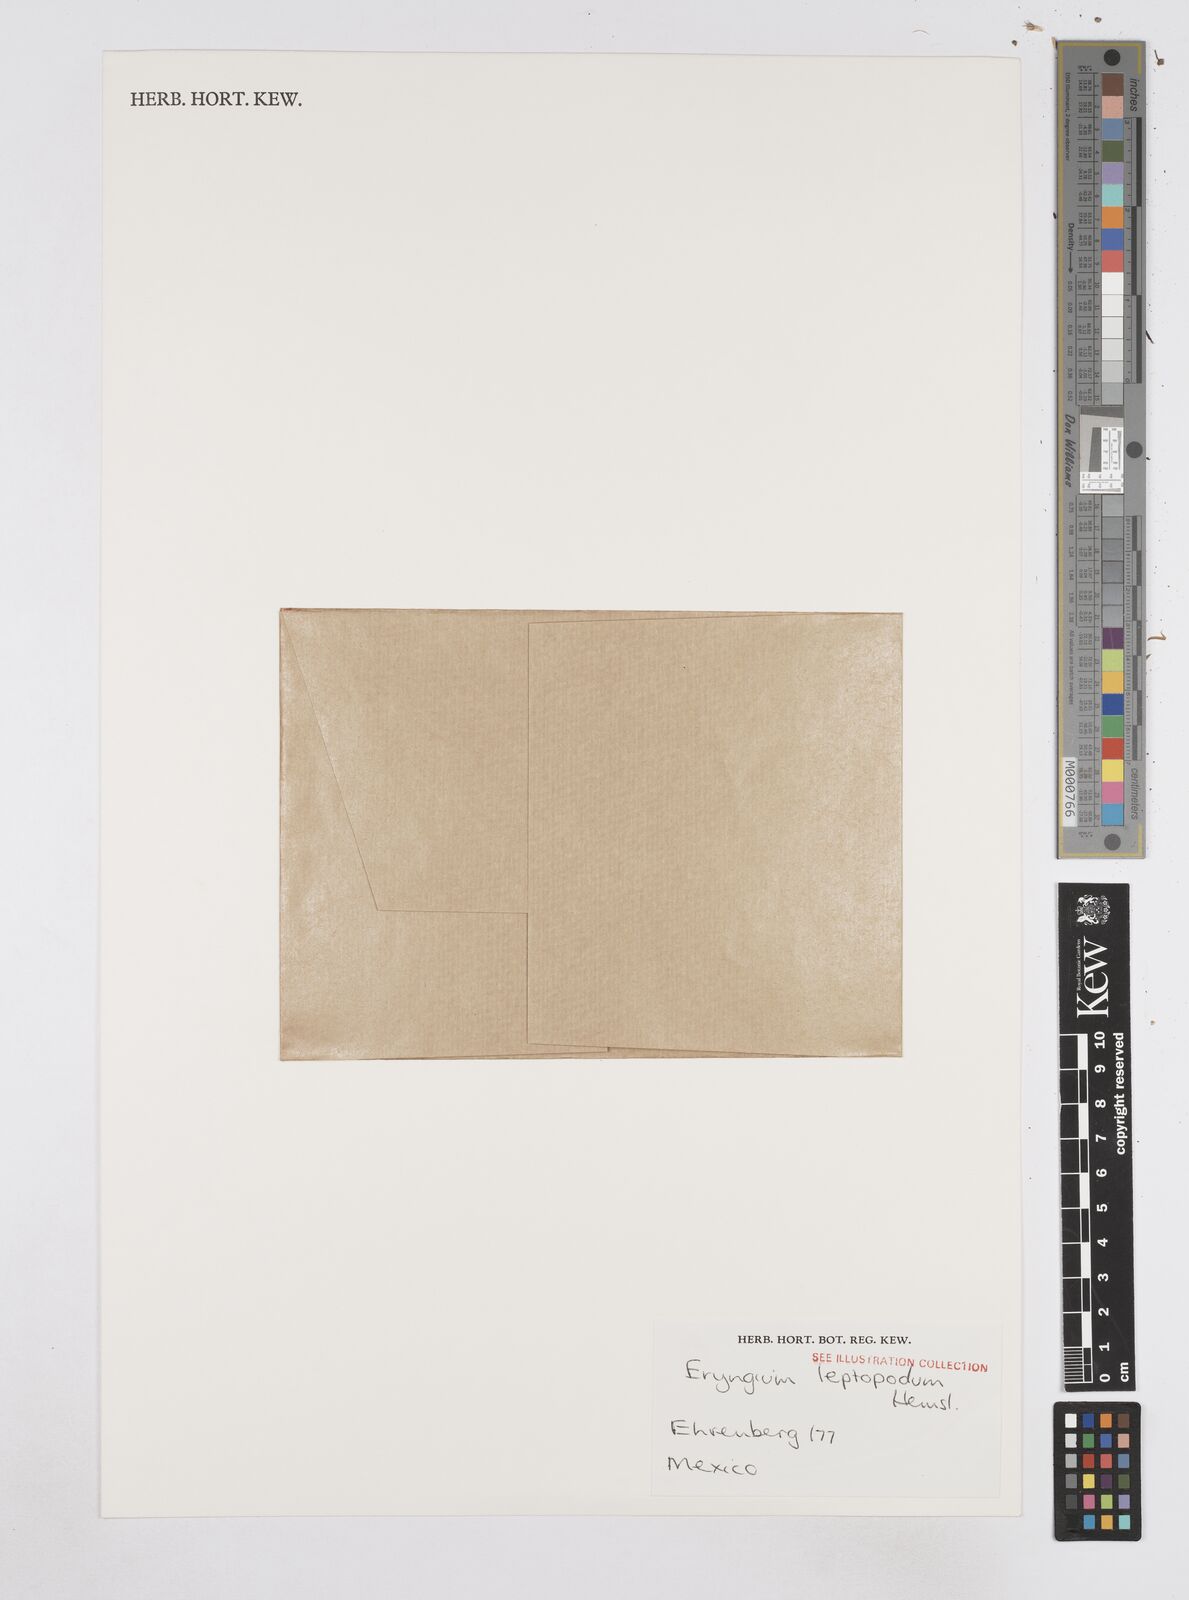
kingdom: Plantae
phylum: Tracheophyta
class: Magnoliopsida
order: Apiales
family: Apiaceae
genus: Eryngium
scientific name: Eryngium humile
